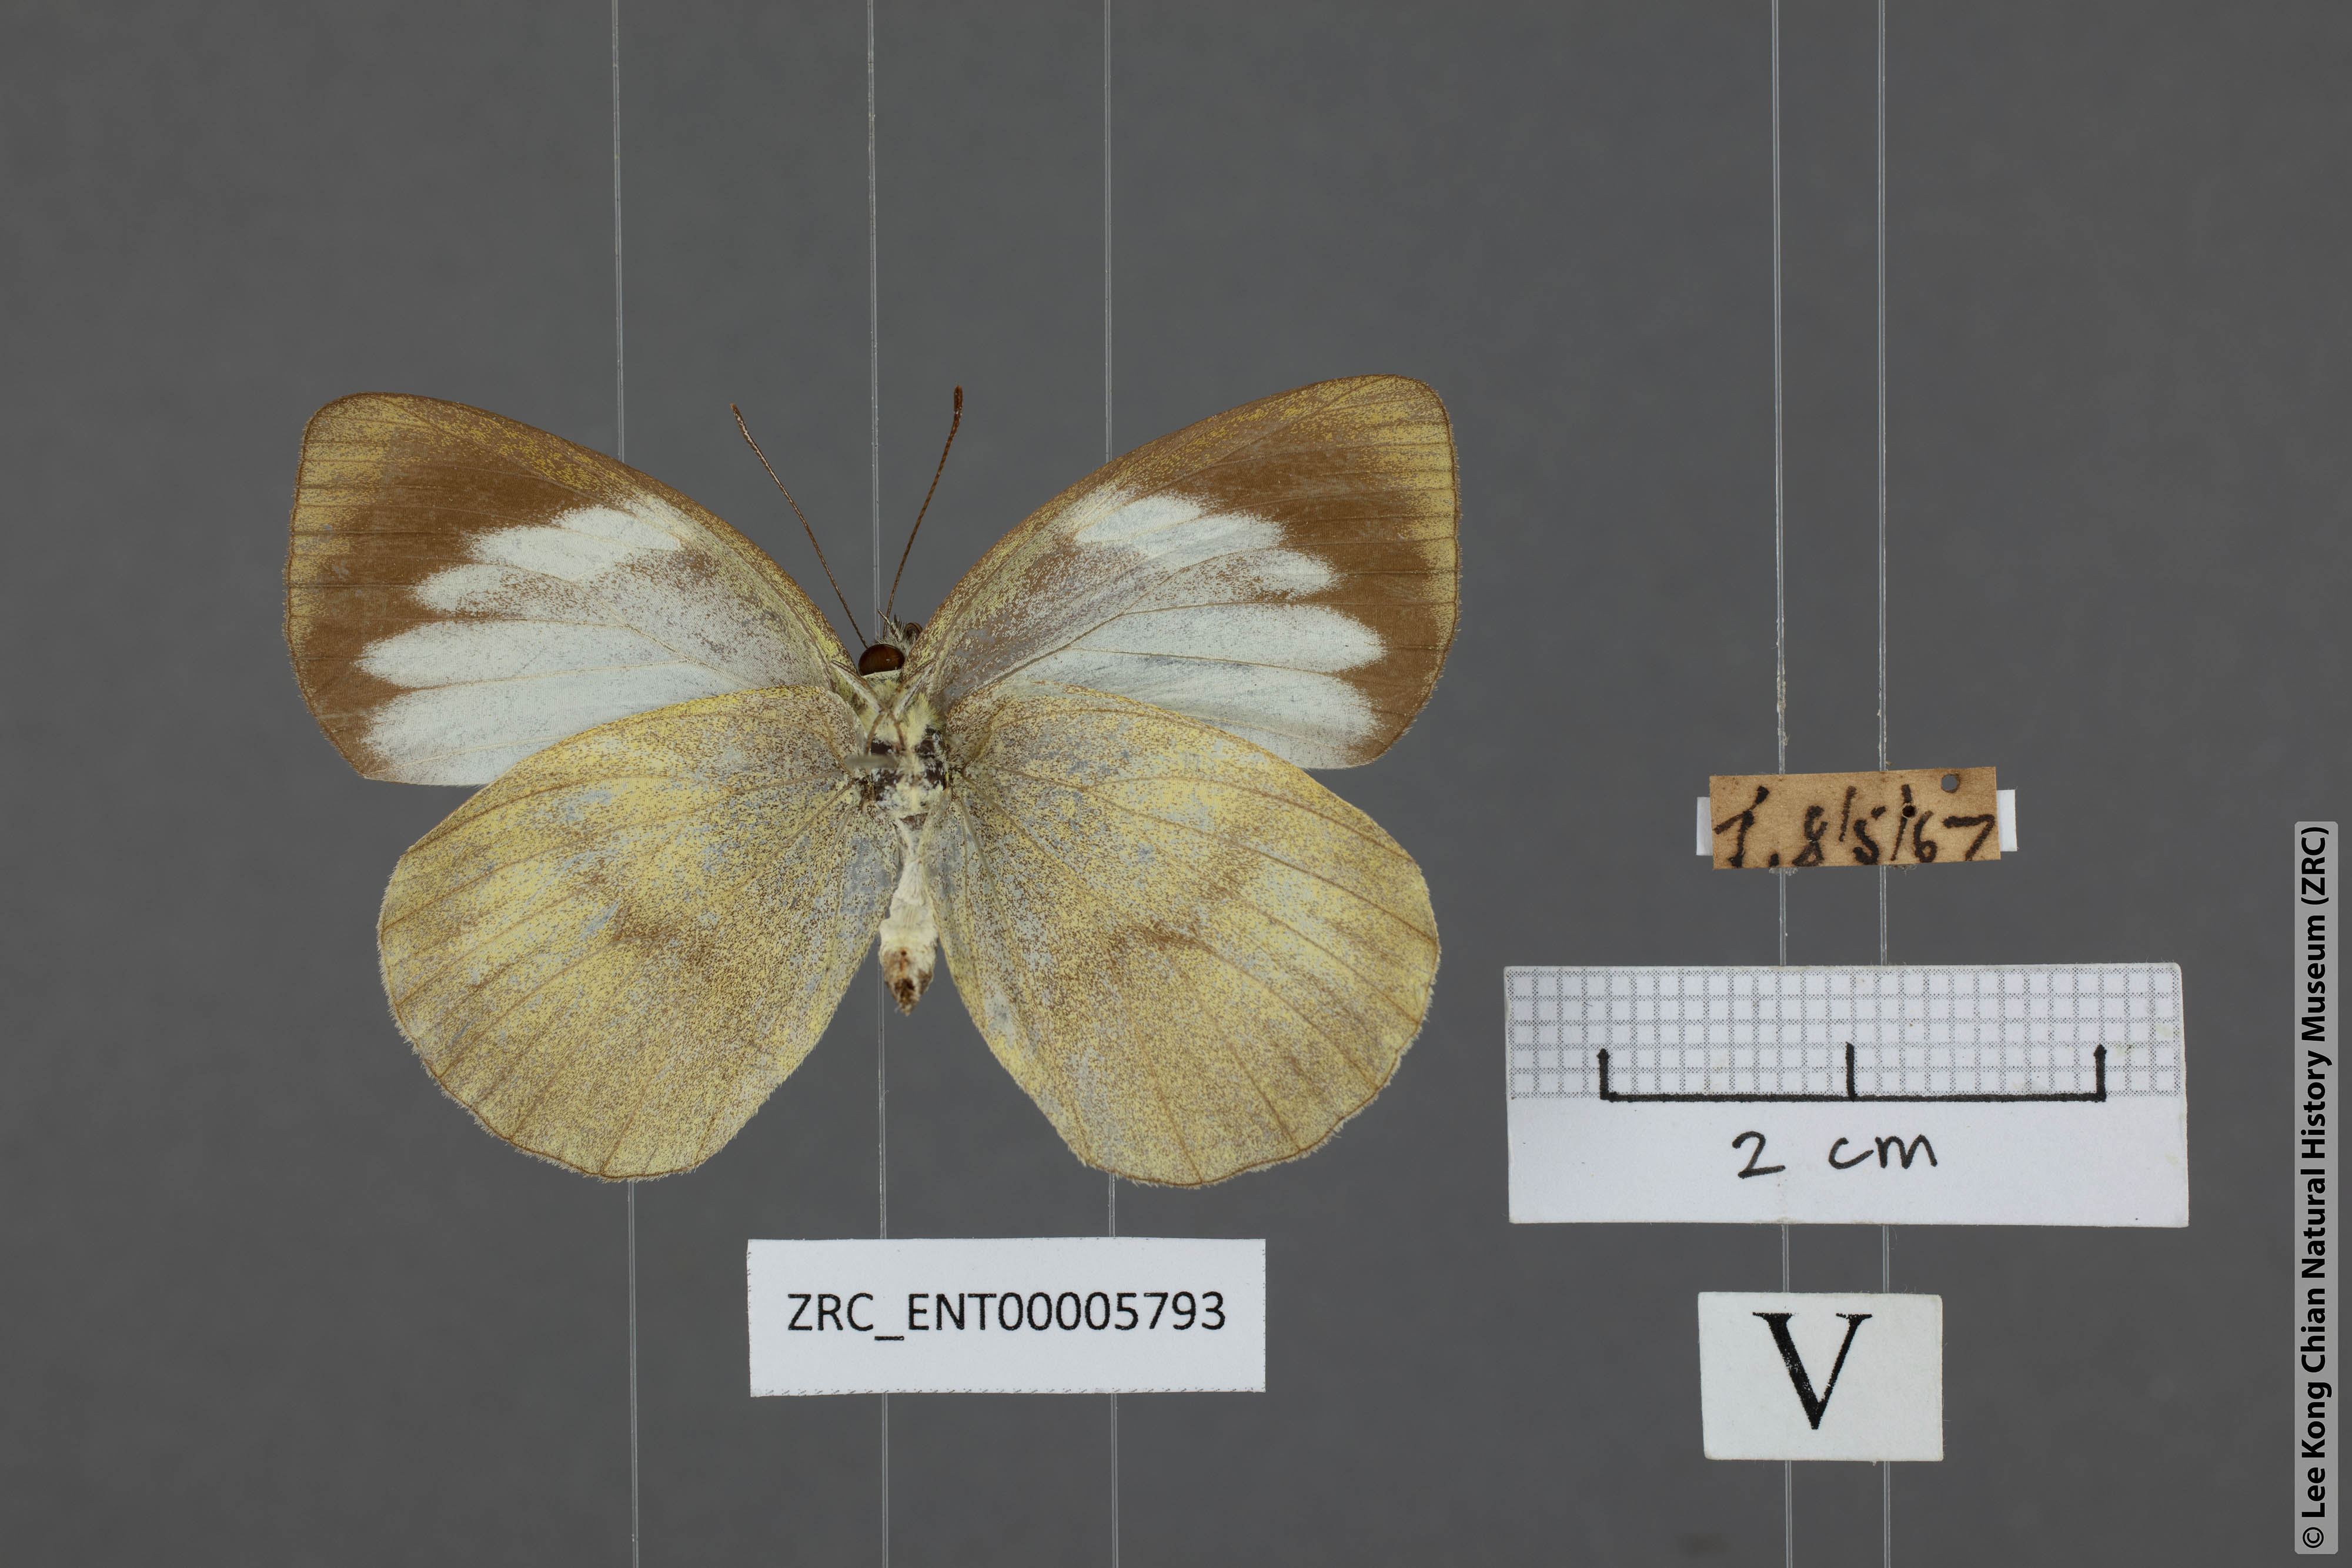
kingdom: Animalia
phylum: Arthropoda
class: Insecta
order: Lepidoptera
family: Pieridae
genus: Phrissura
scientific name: Phrissura aegis
